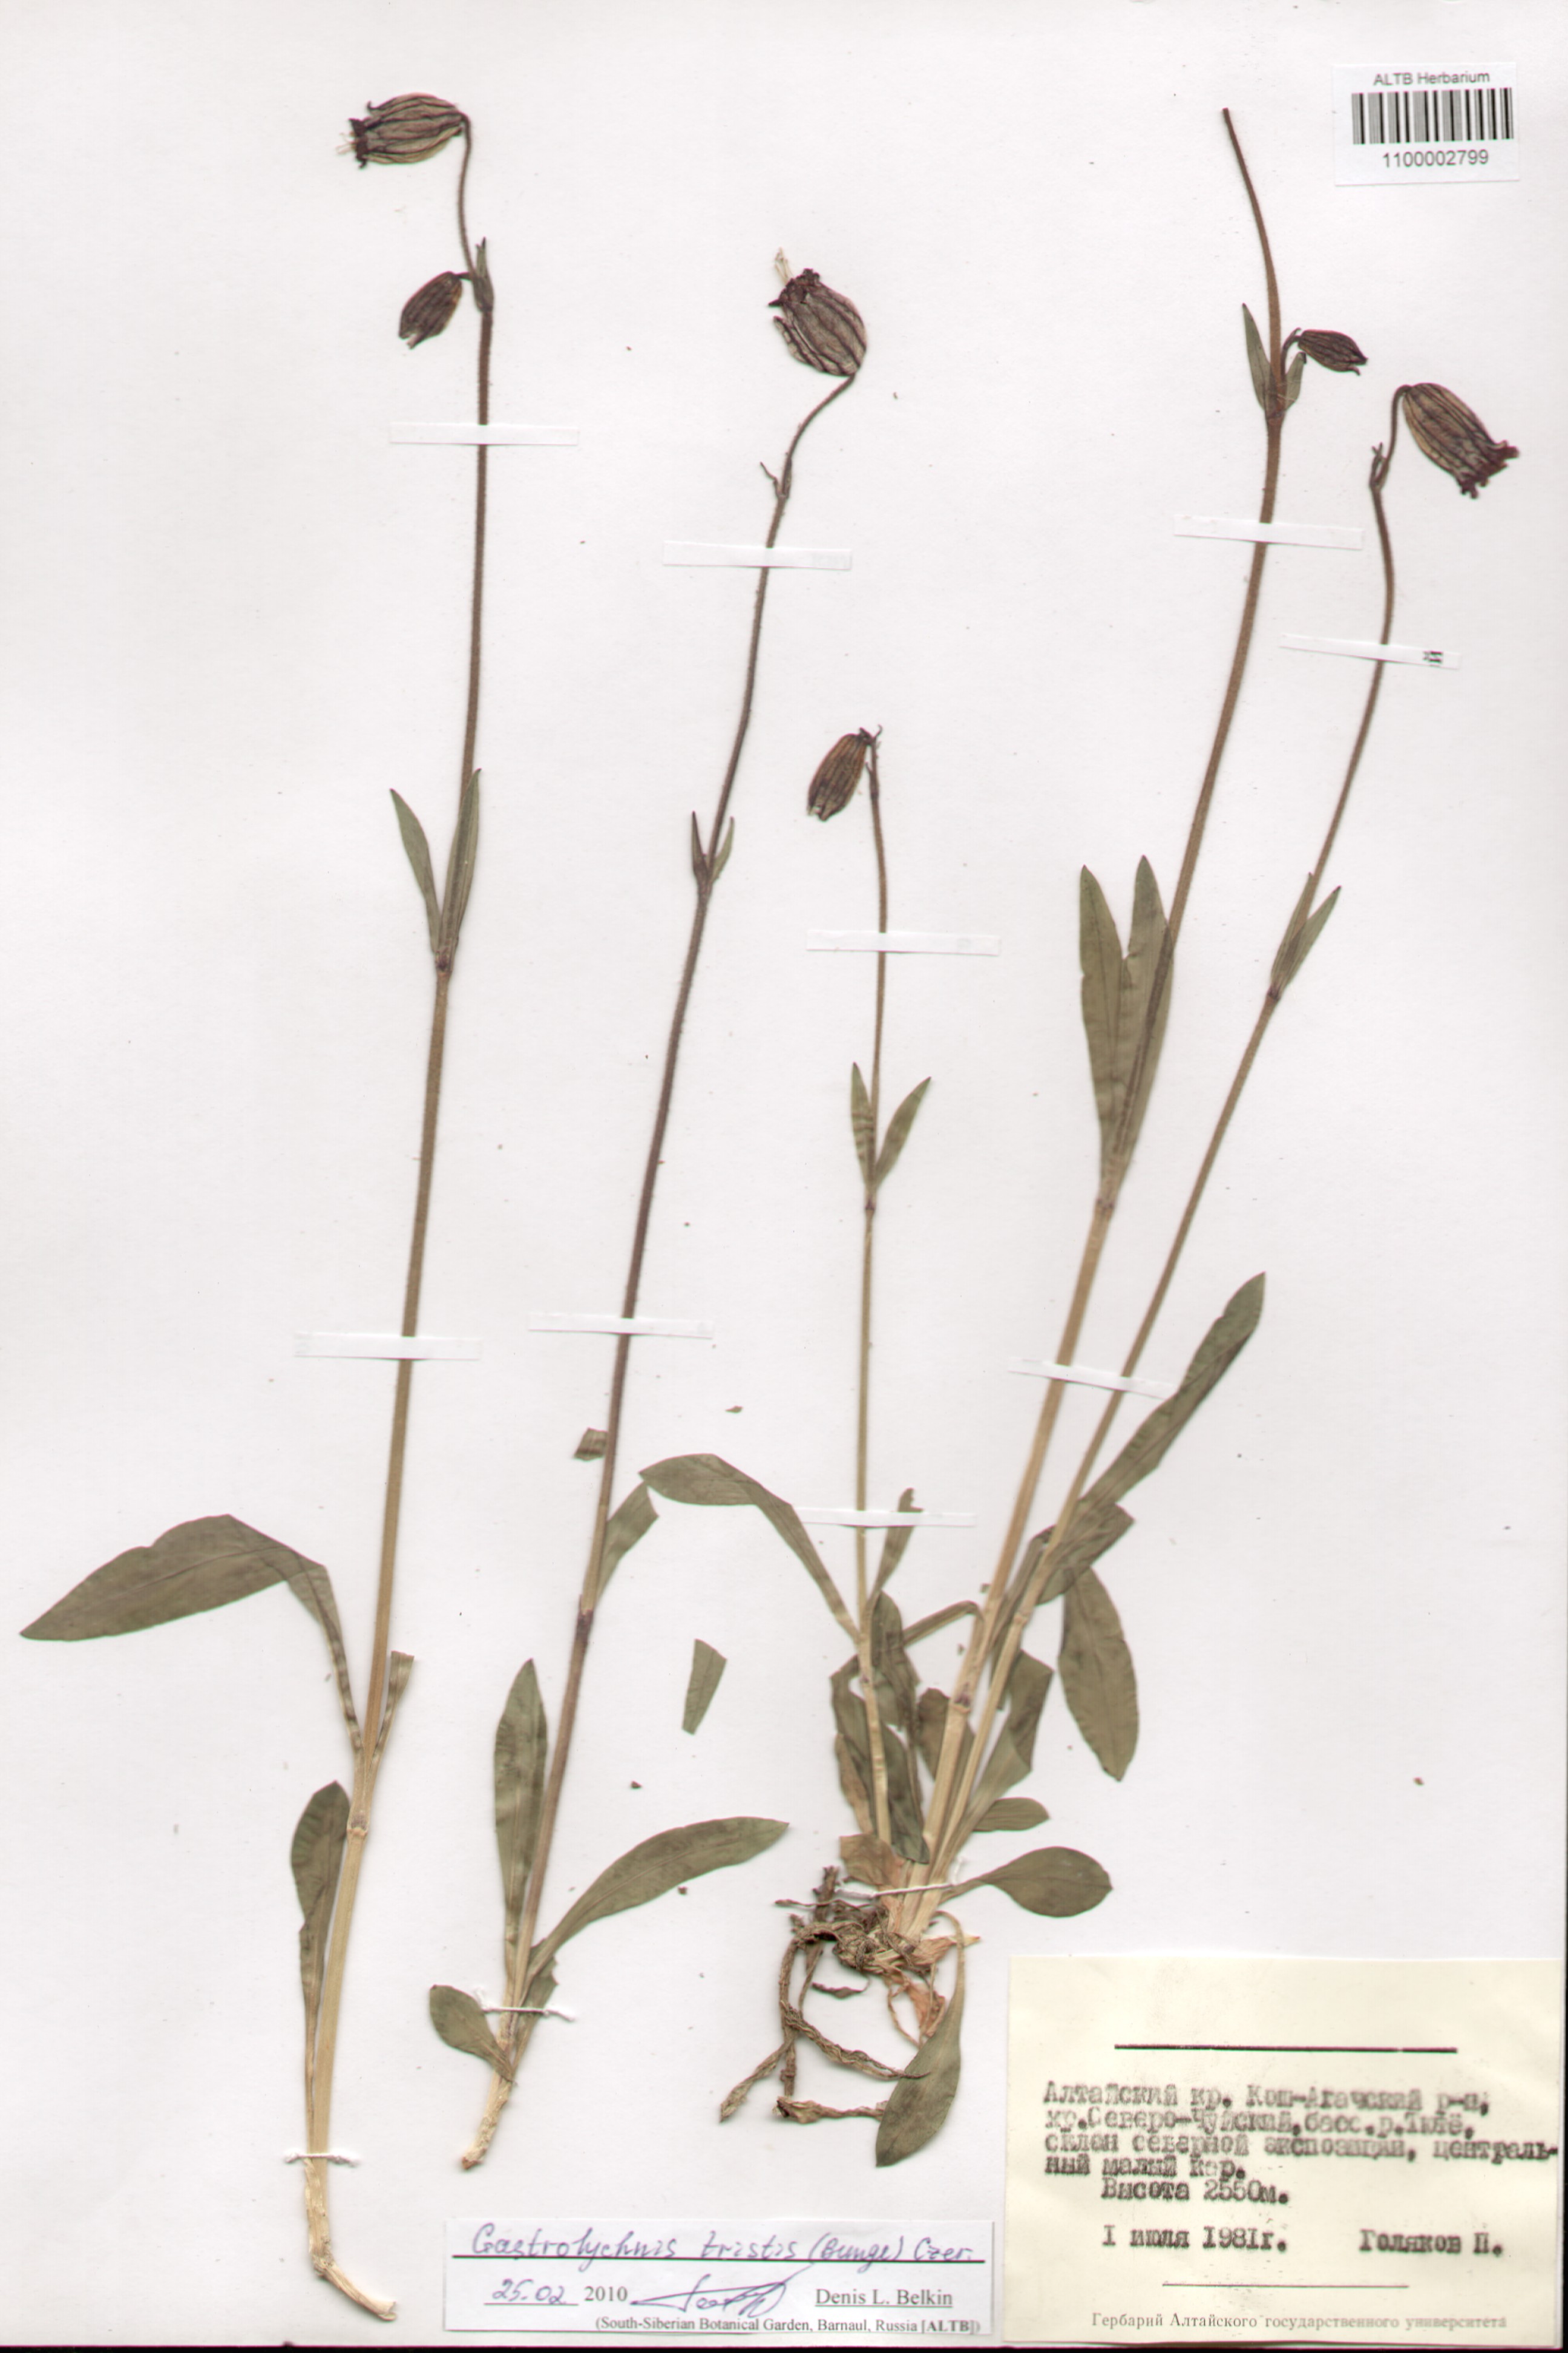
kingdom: Plantae
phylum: Tracheophyta
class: Magnoliopsida
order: Caryophyllales
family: Caryophyllaceae
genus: Silene
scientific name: Silene bungei
